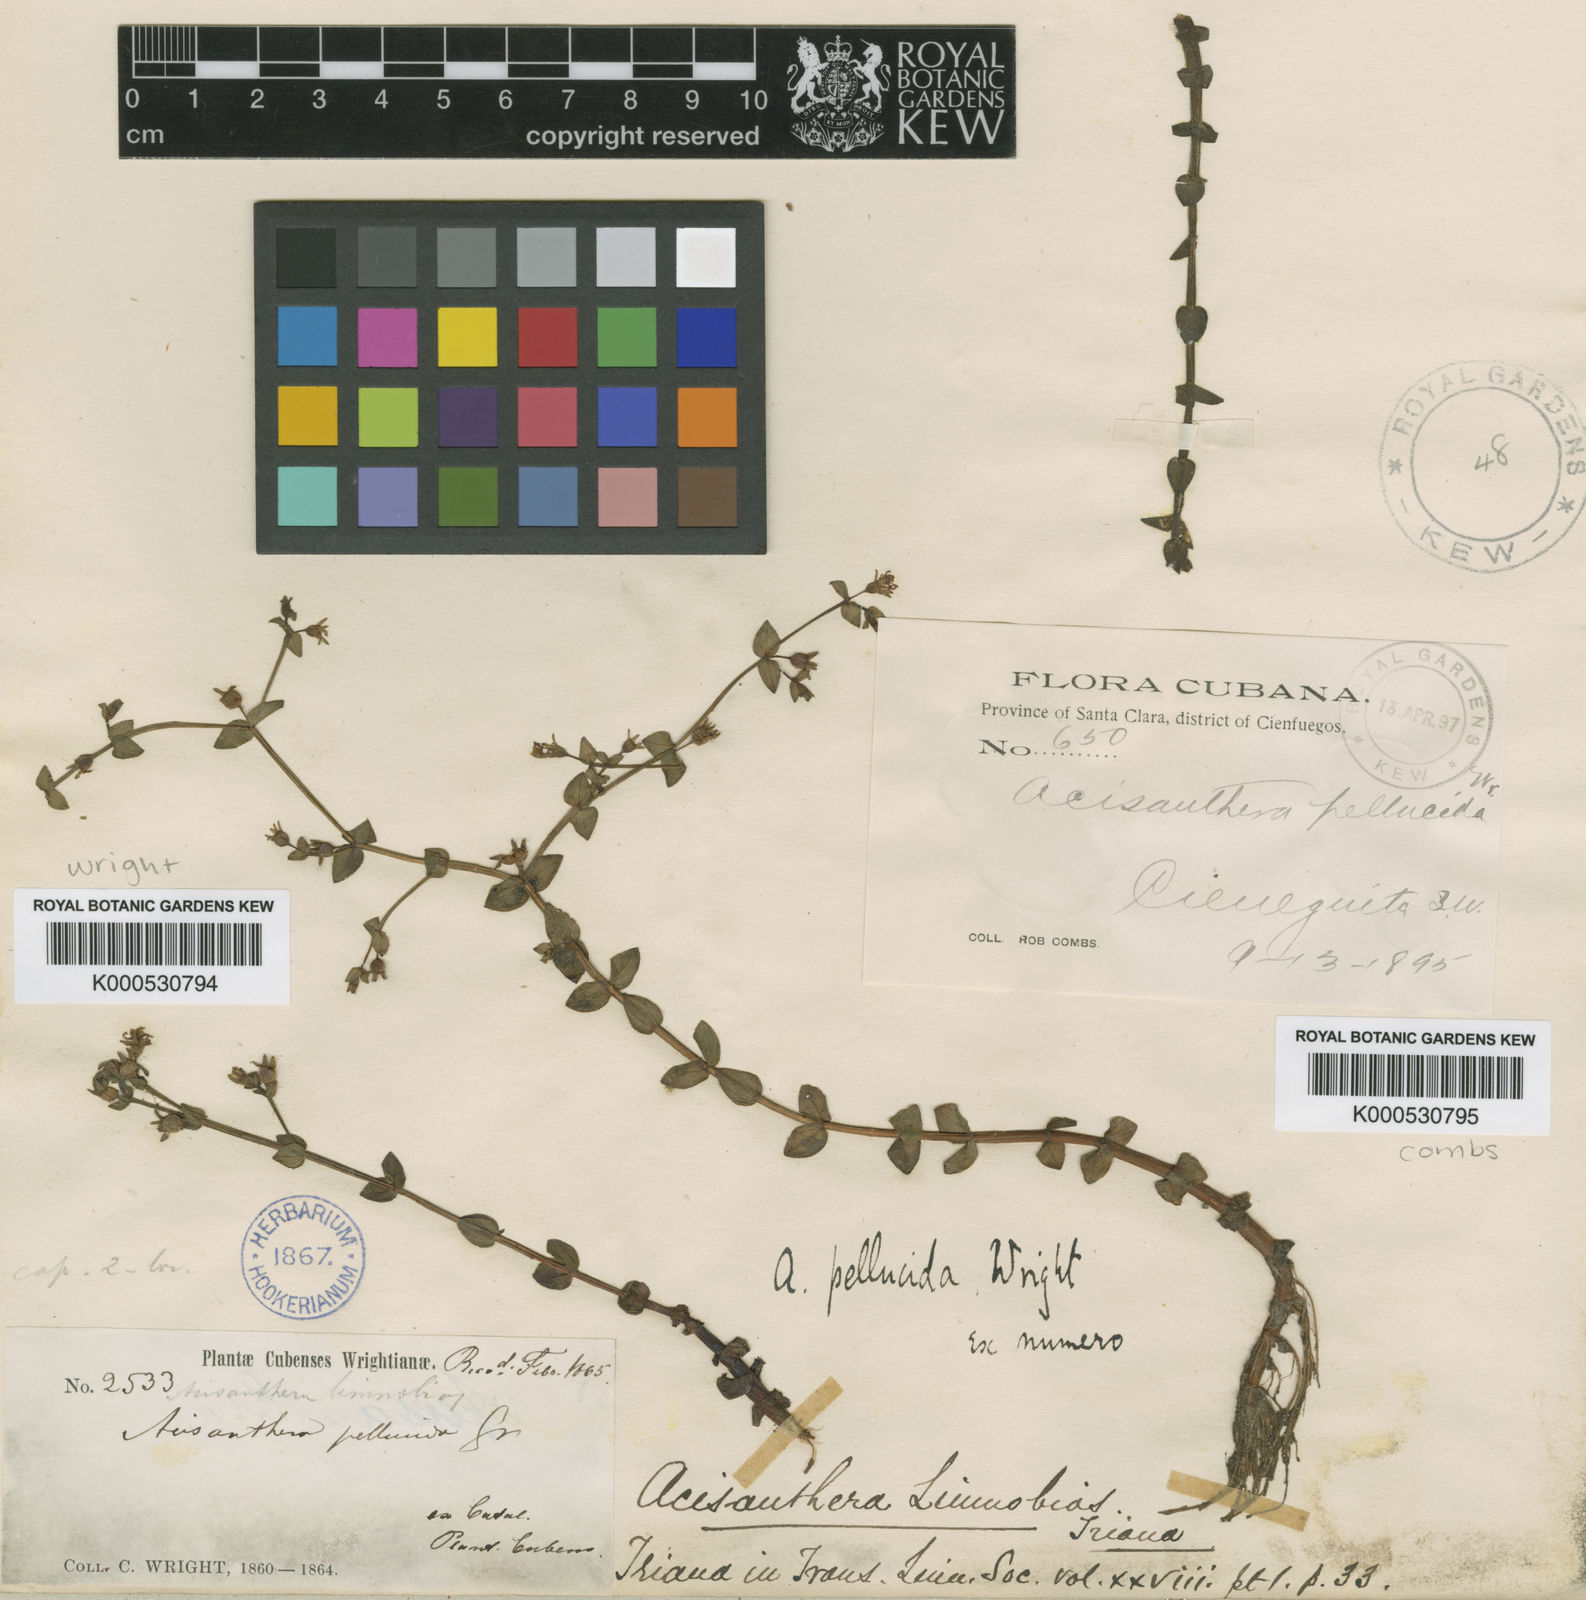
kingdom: Plantae
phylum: Tracheophyta
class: Magnoliopsida
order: Myrtales
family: Melastomataceae
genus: Noterophila
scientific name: Noterophila limnobios
